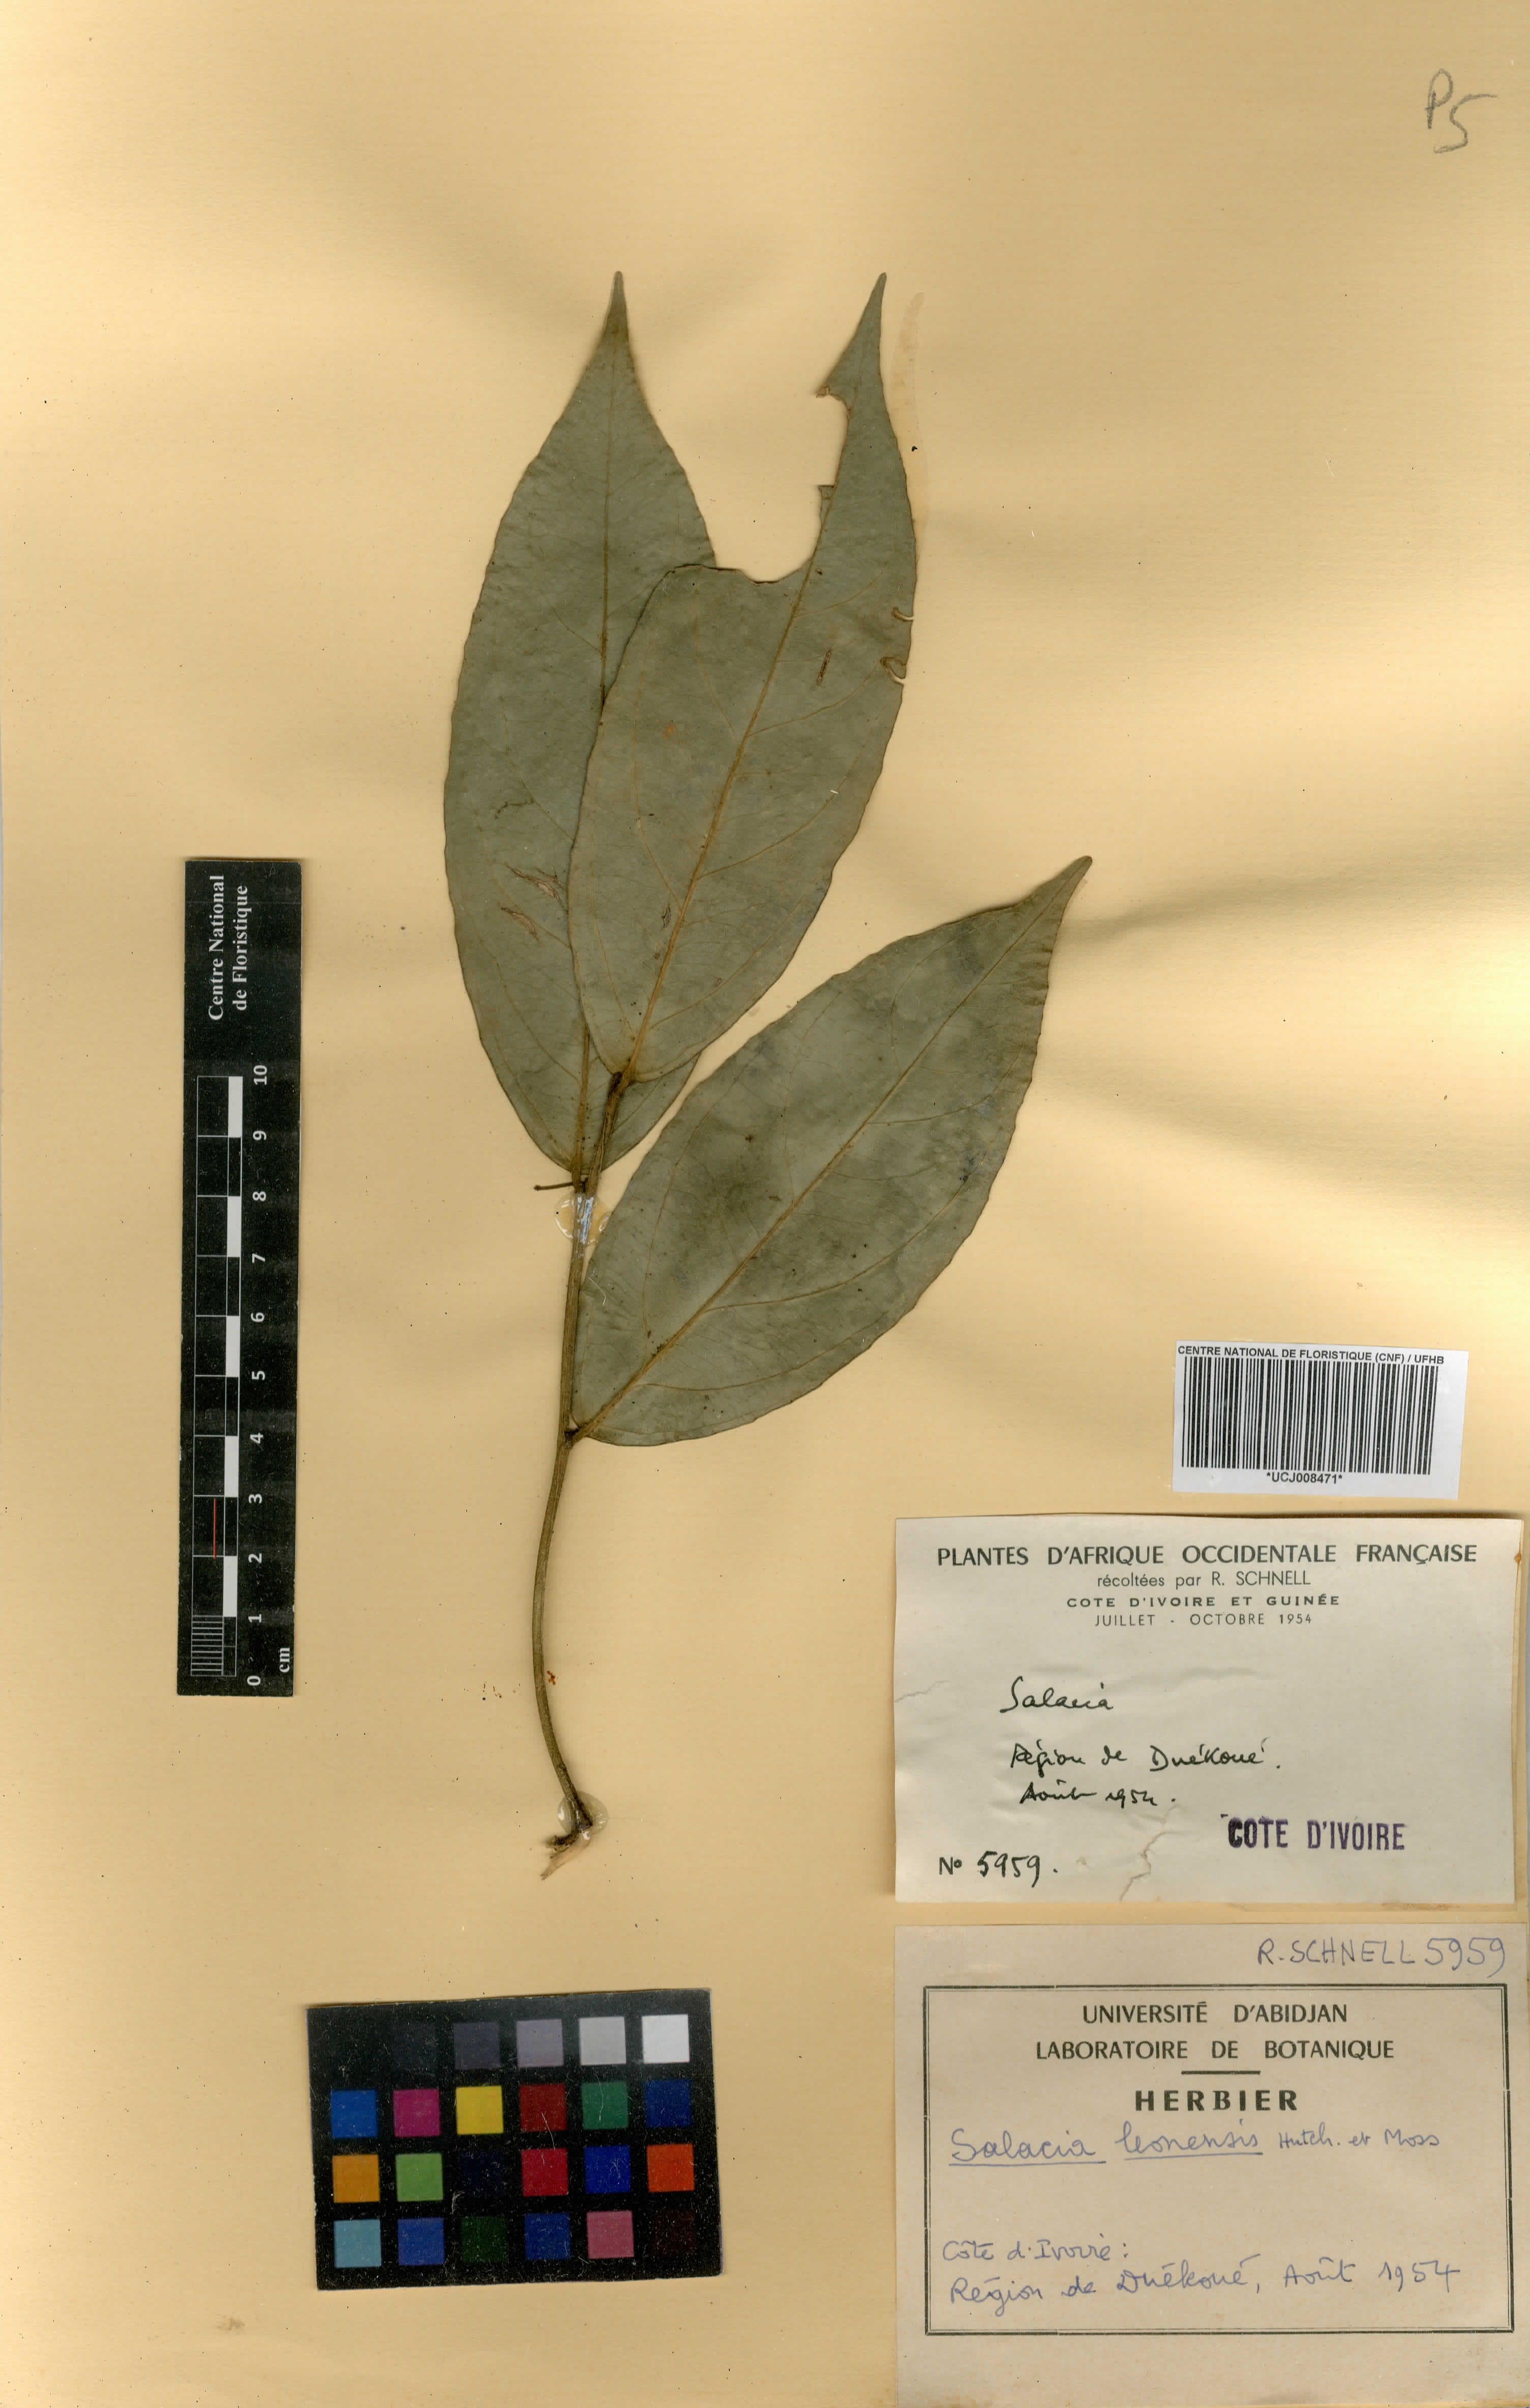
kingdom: Plantae
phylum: Tracheophyta
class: Magnoliopsida
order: Celastrales
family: Celastraceae
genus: Salacia
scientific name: Salacia lehmbachii
